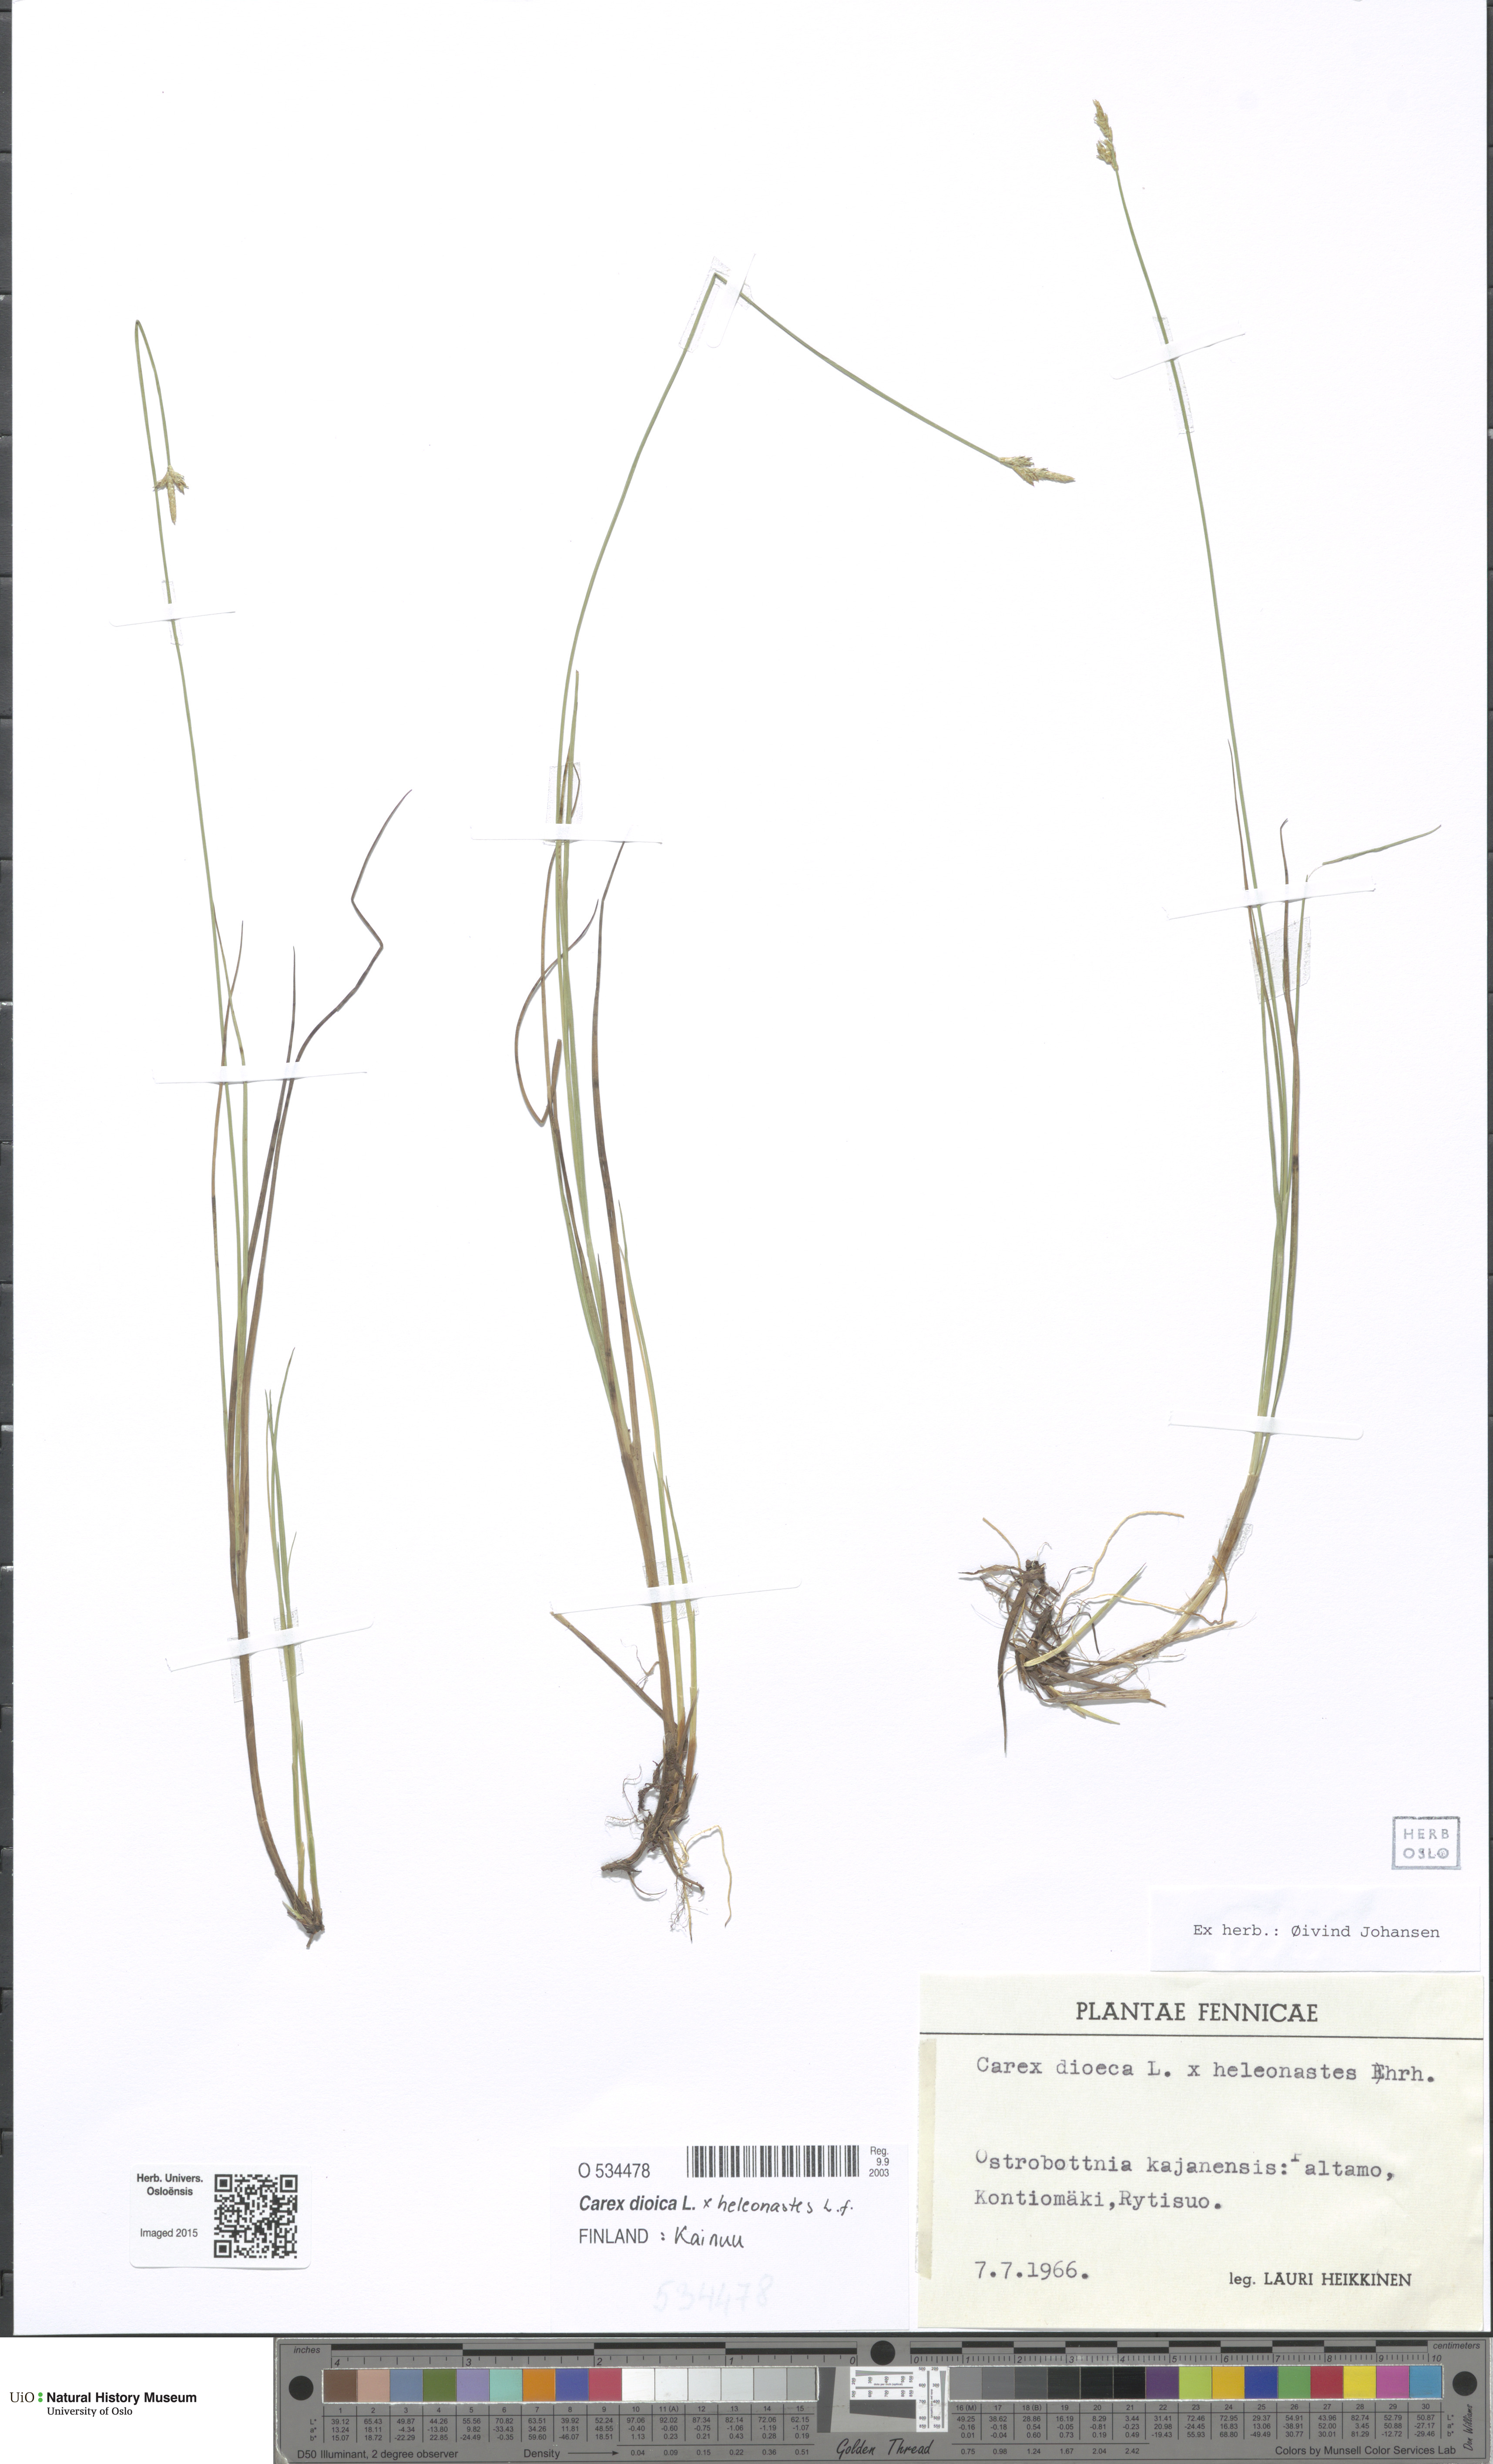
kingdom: Plantae
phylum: Tracheophyta
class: Liliopsida
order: Poales
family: Cyperaceae
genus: Carex
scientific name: Carex
